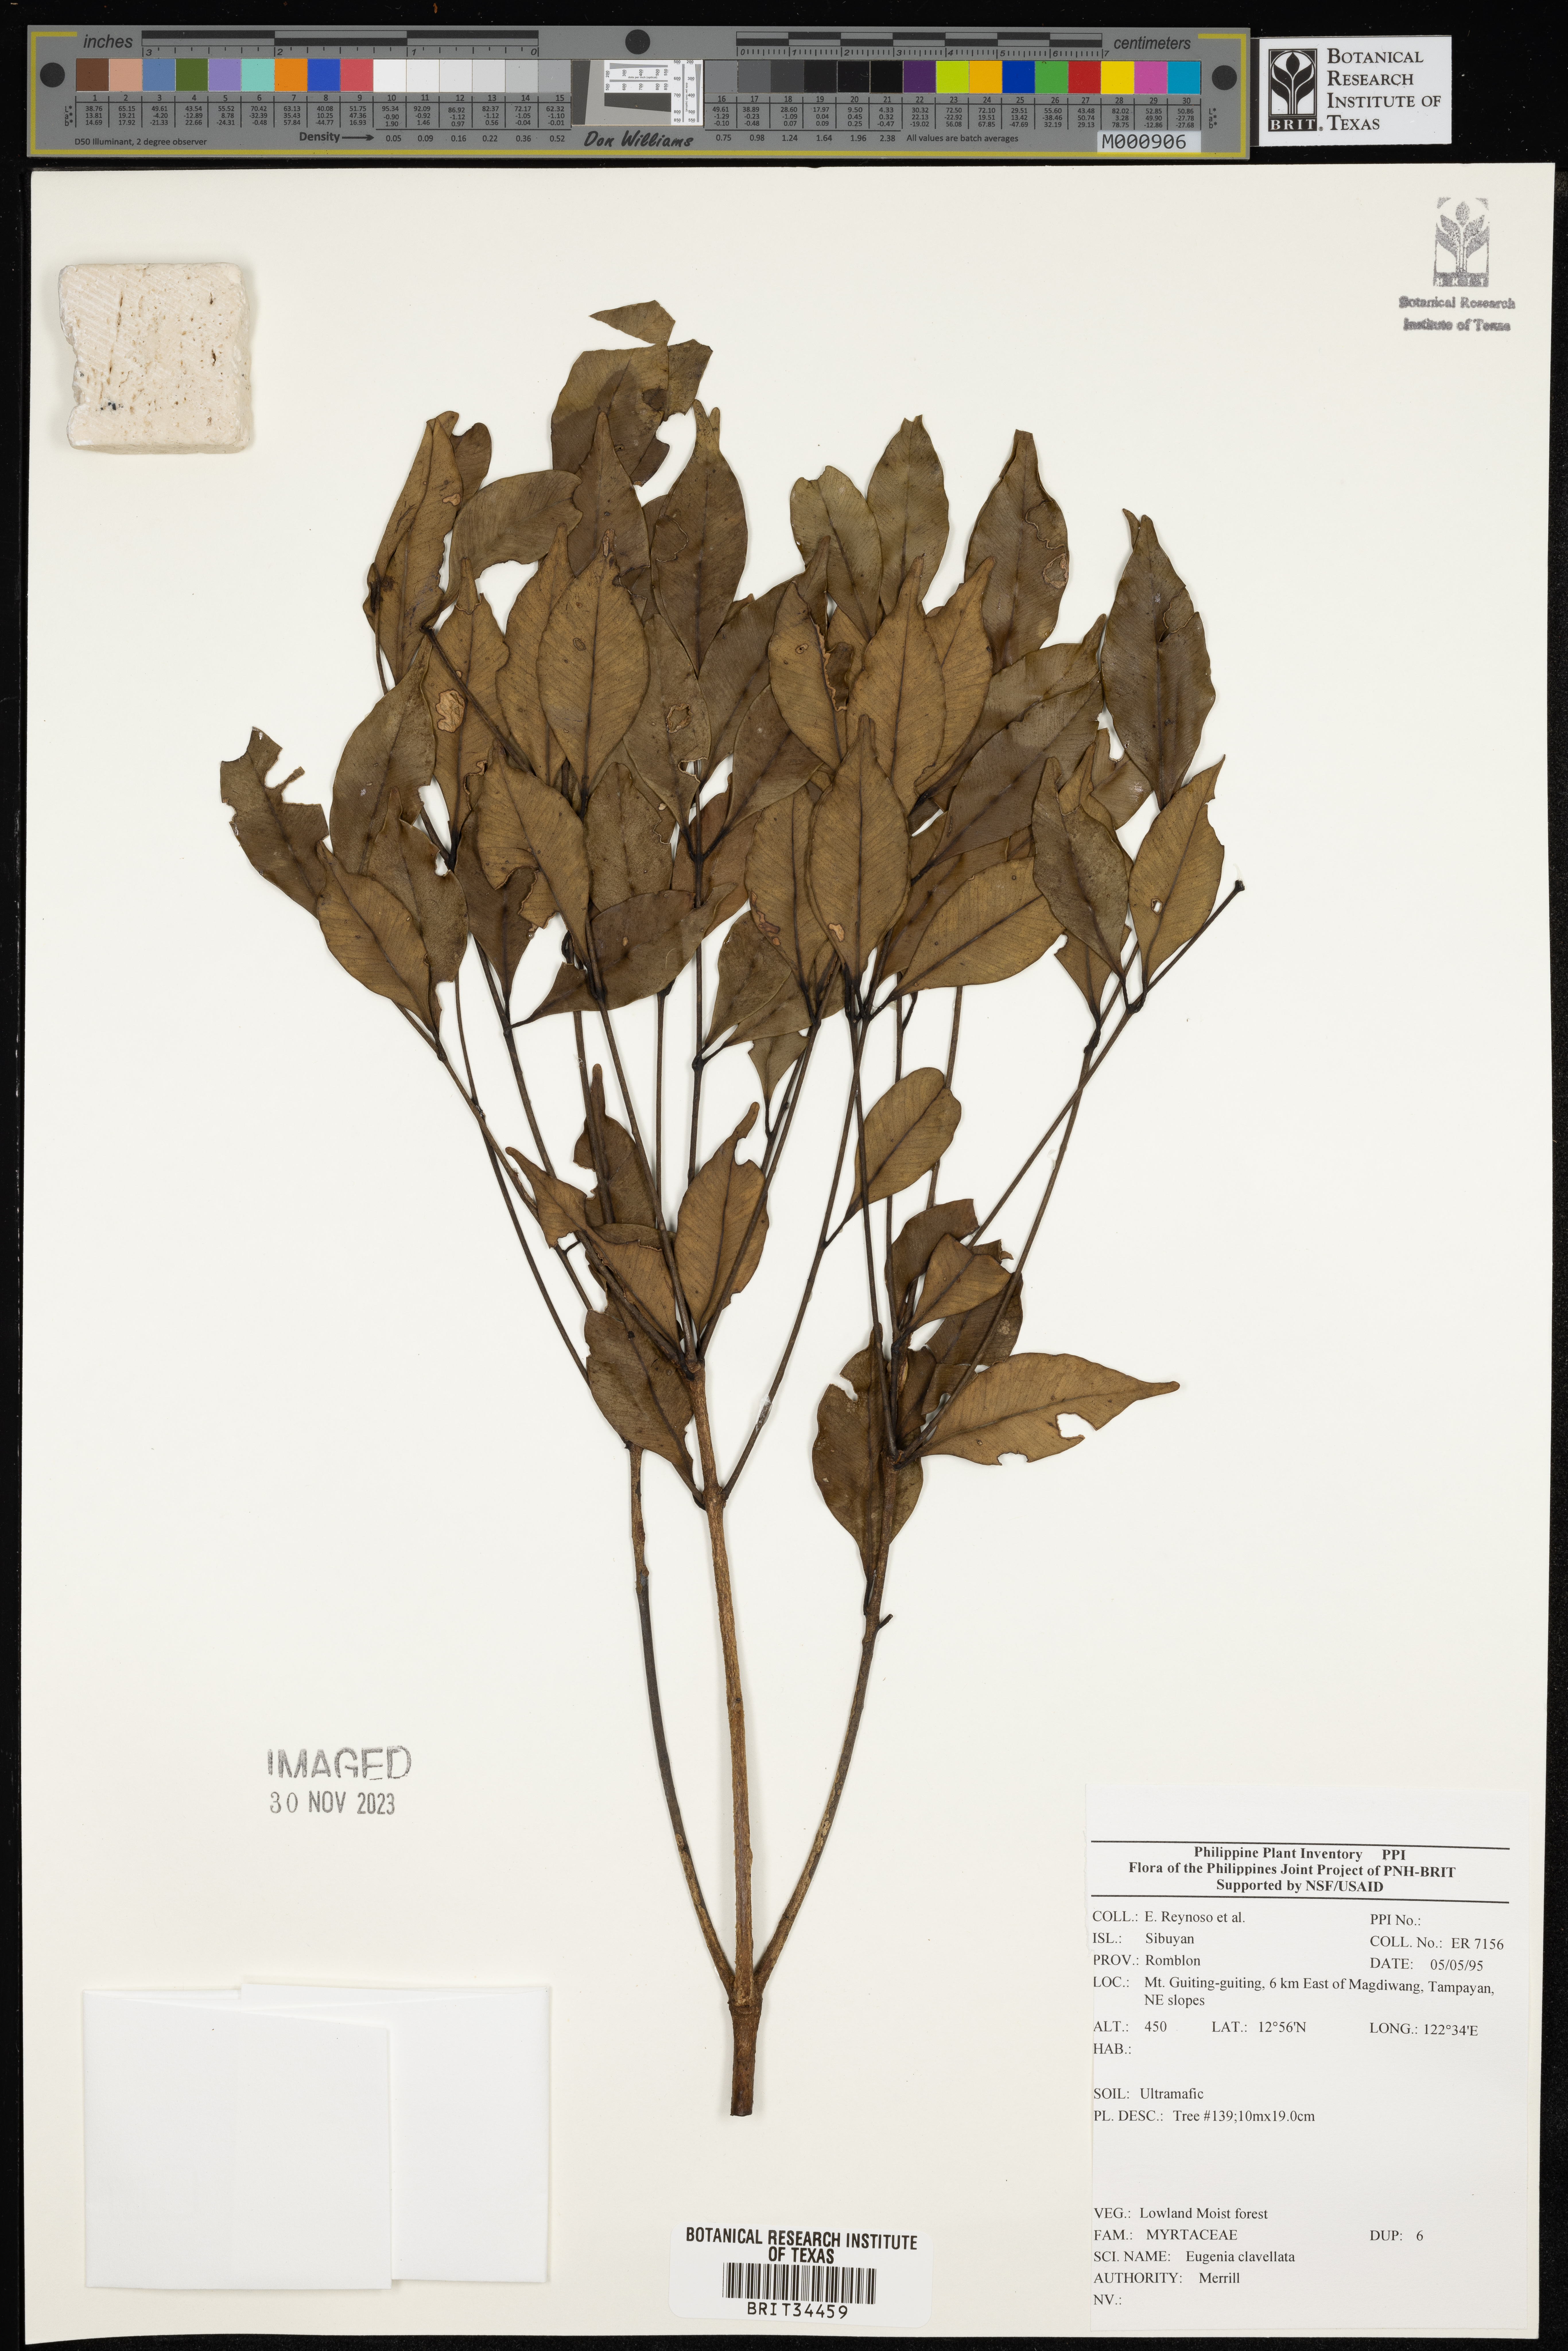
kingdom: Plantae
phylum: Tracheophyta
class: Magnoliopsida
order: Myrtales
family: Myrtaceae
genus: Eugenia
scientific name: Eugenia
